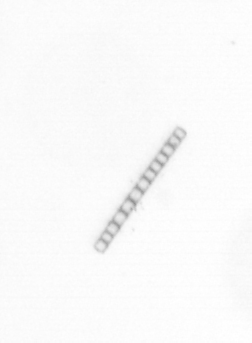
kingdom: Chromista
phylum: Ochrophyta
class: Bacillariophyceae
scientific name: Bacillariophyceae
